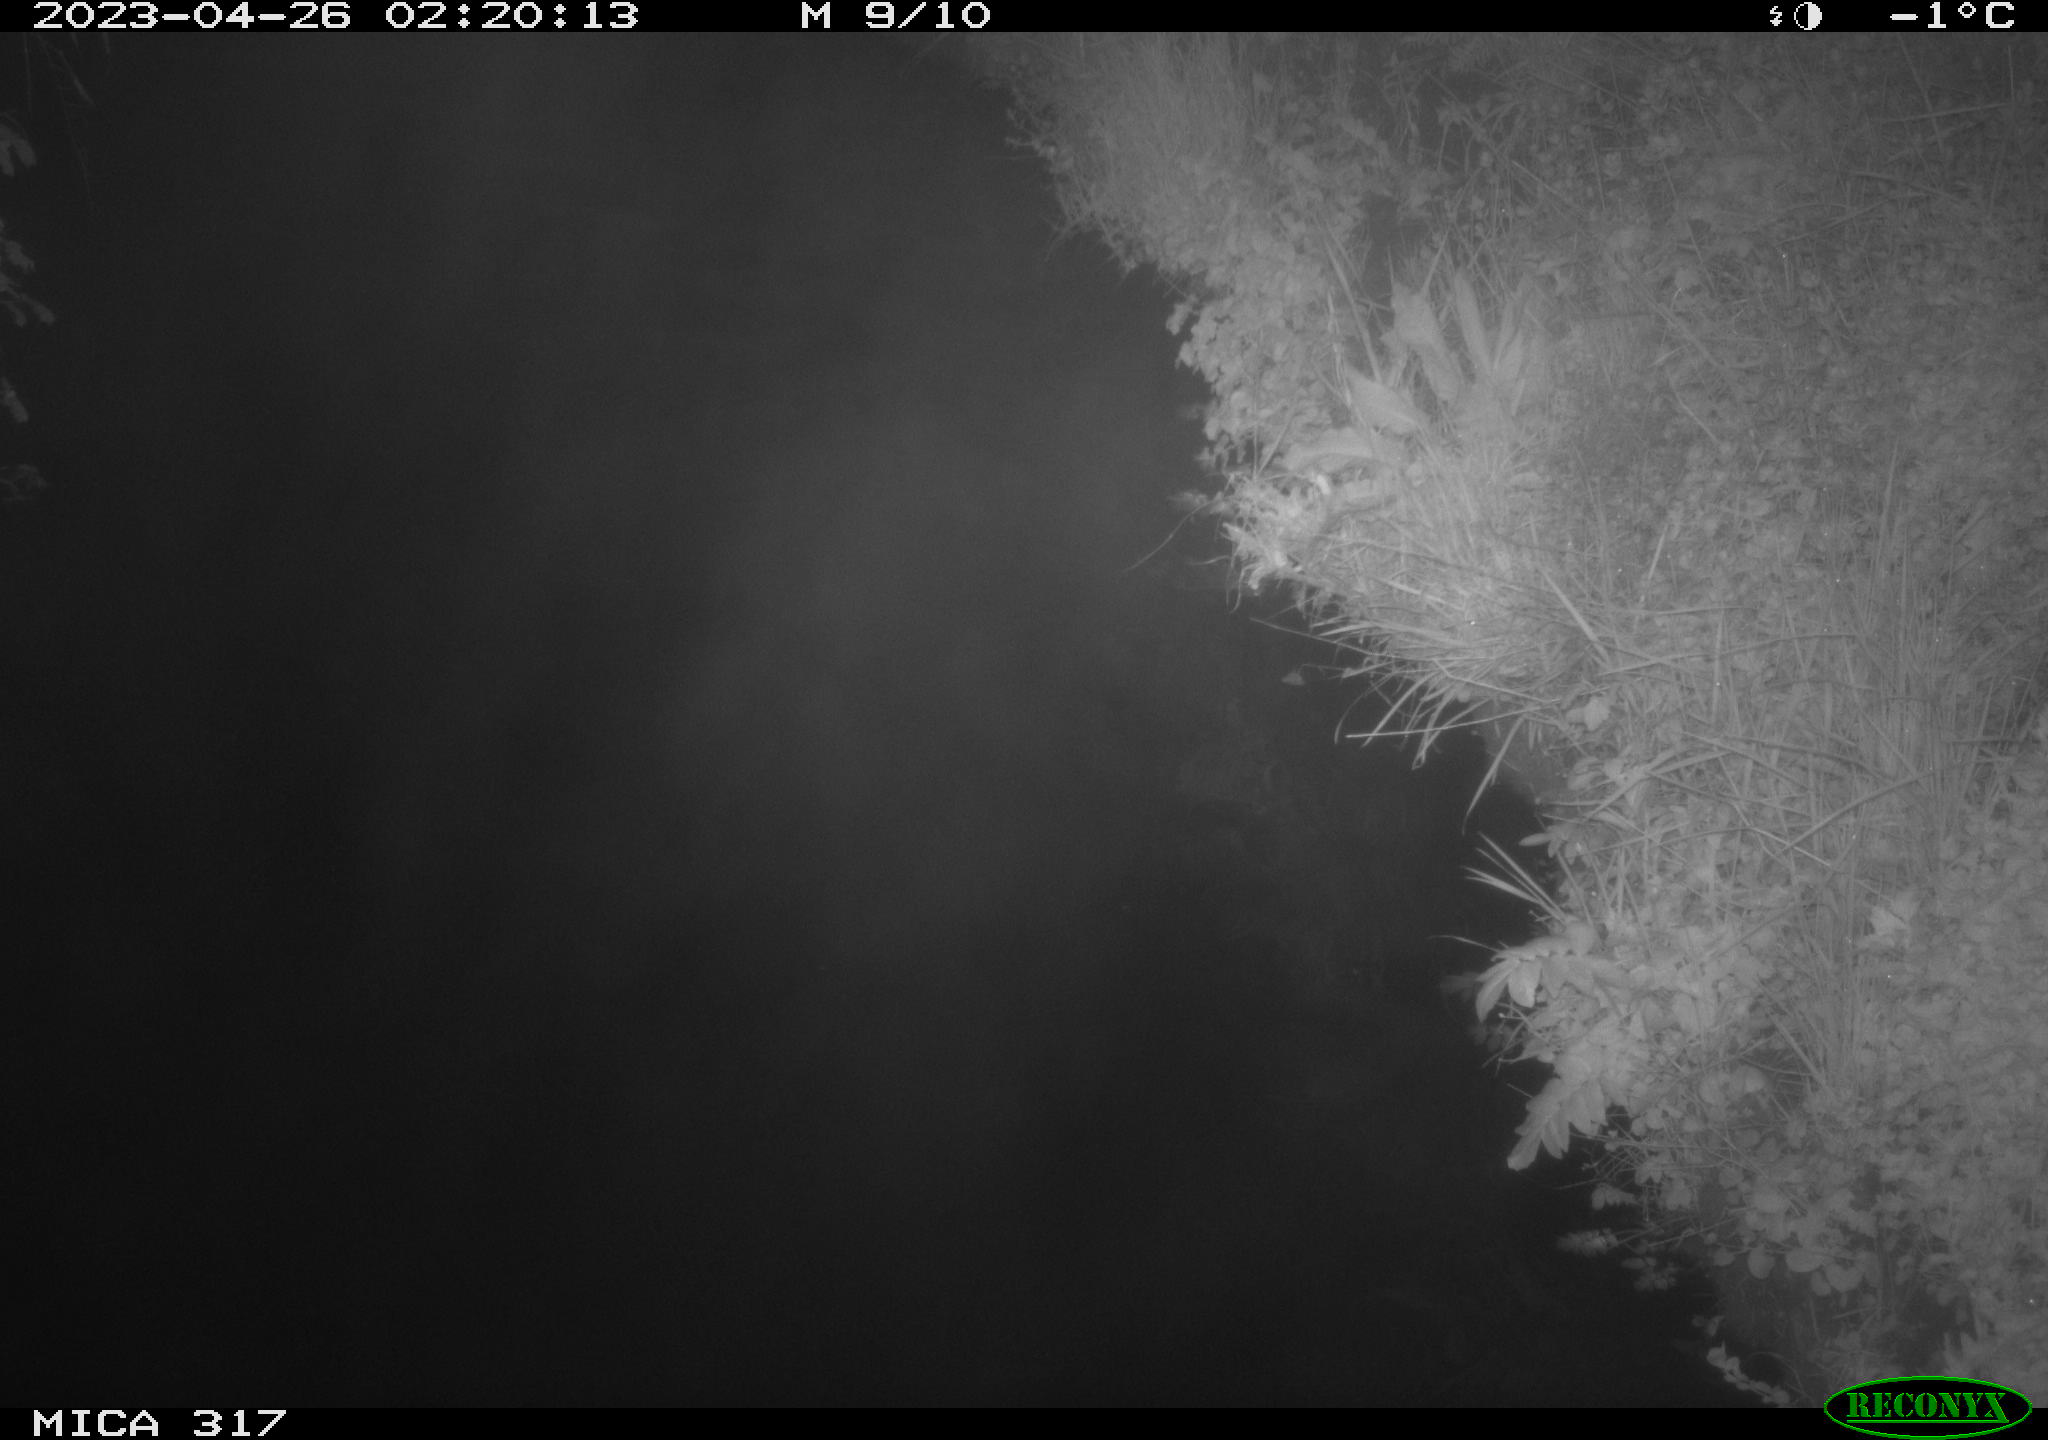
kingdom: Animalia
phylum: Chordata
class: Aves
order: Anseriformes
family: Anatidae
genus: Anas
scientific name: Anas
